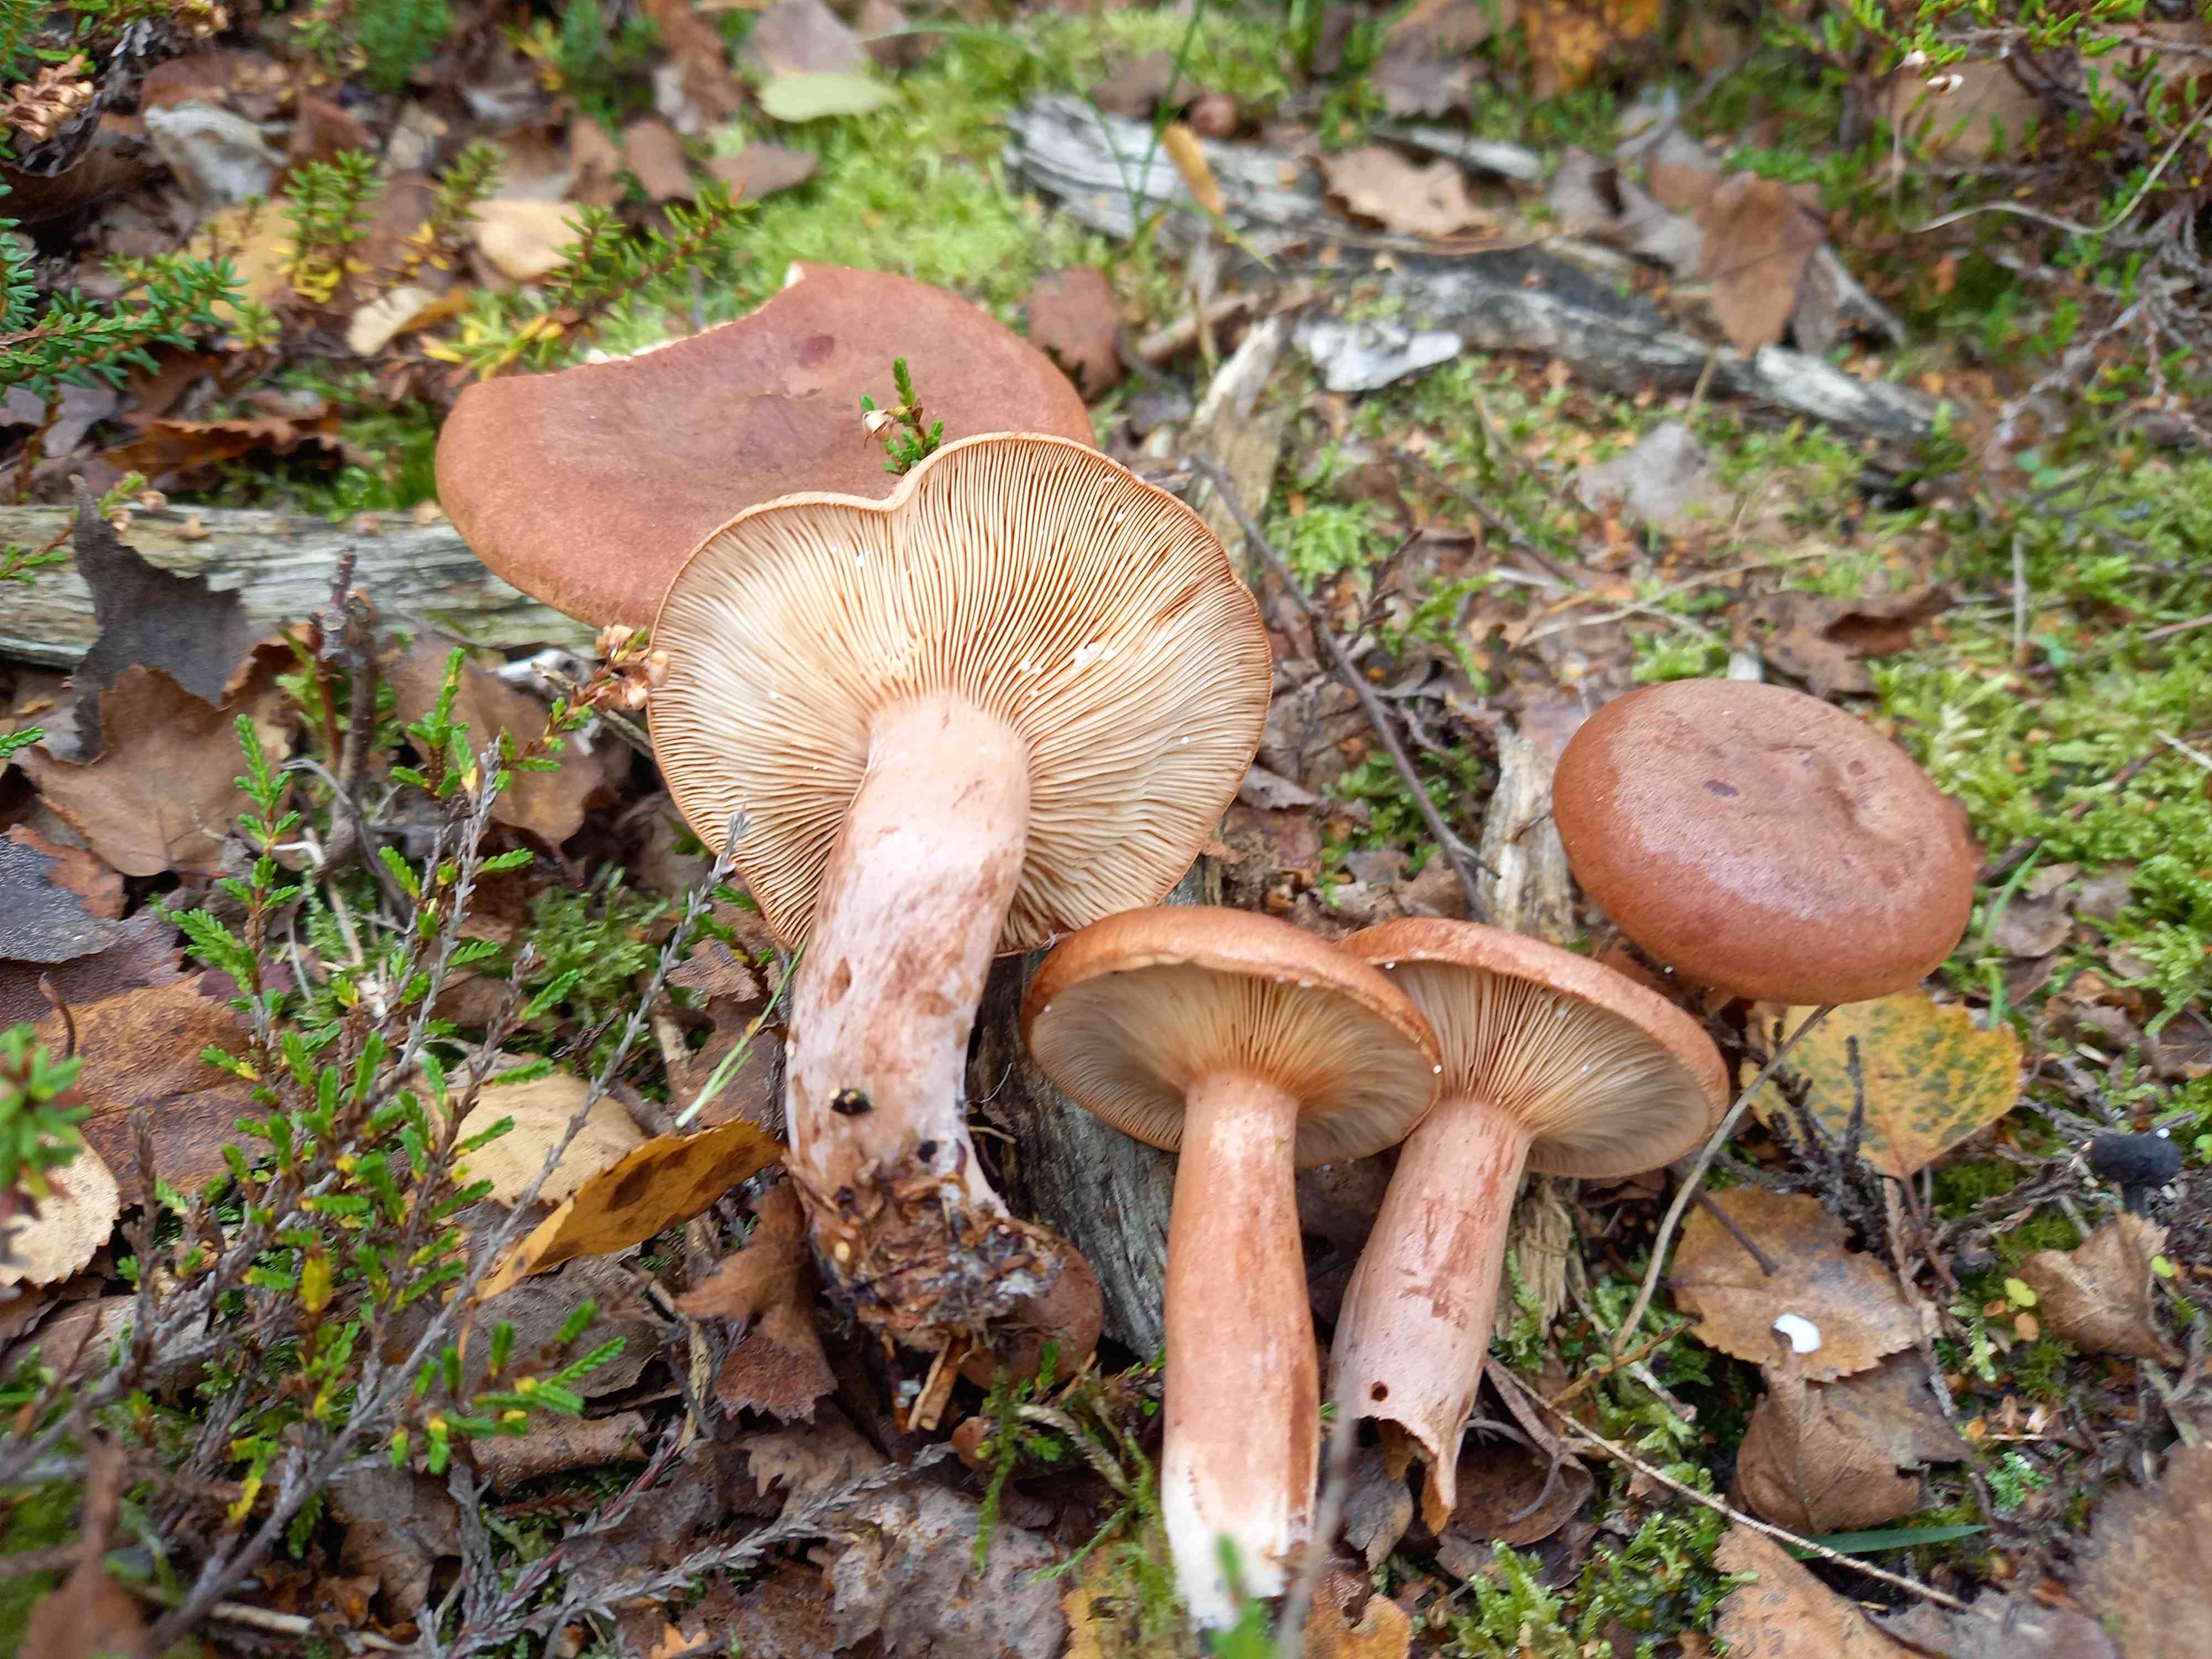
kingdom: Fungi
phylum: Basidiomycota
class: Agaricomycetes
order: Russulales
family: Russulaceae
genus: Lactarius
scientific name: Lactarius rufus
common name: rødbrun mælkehat
